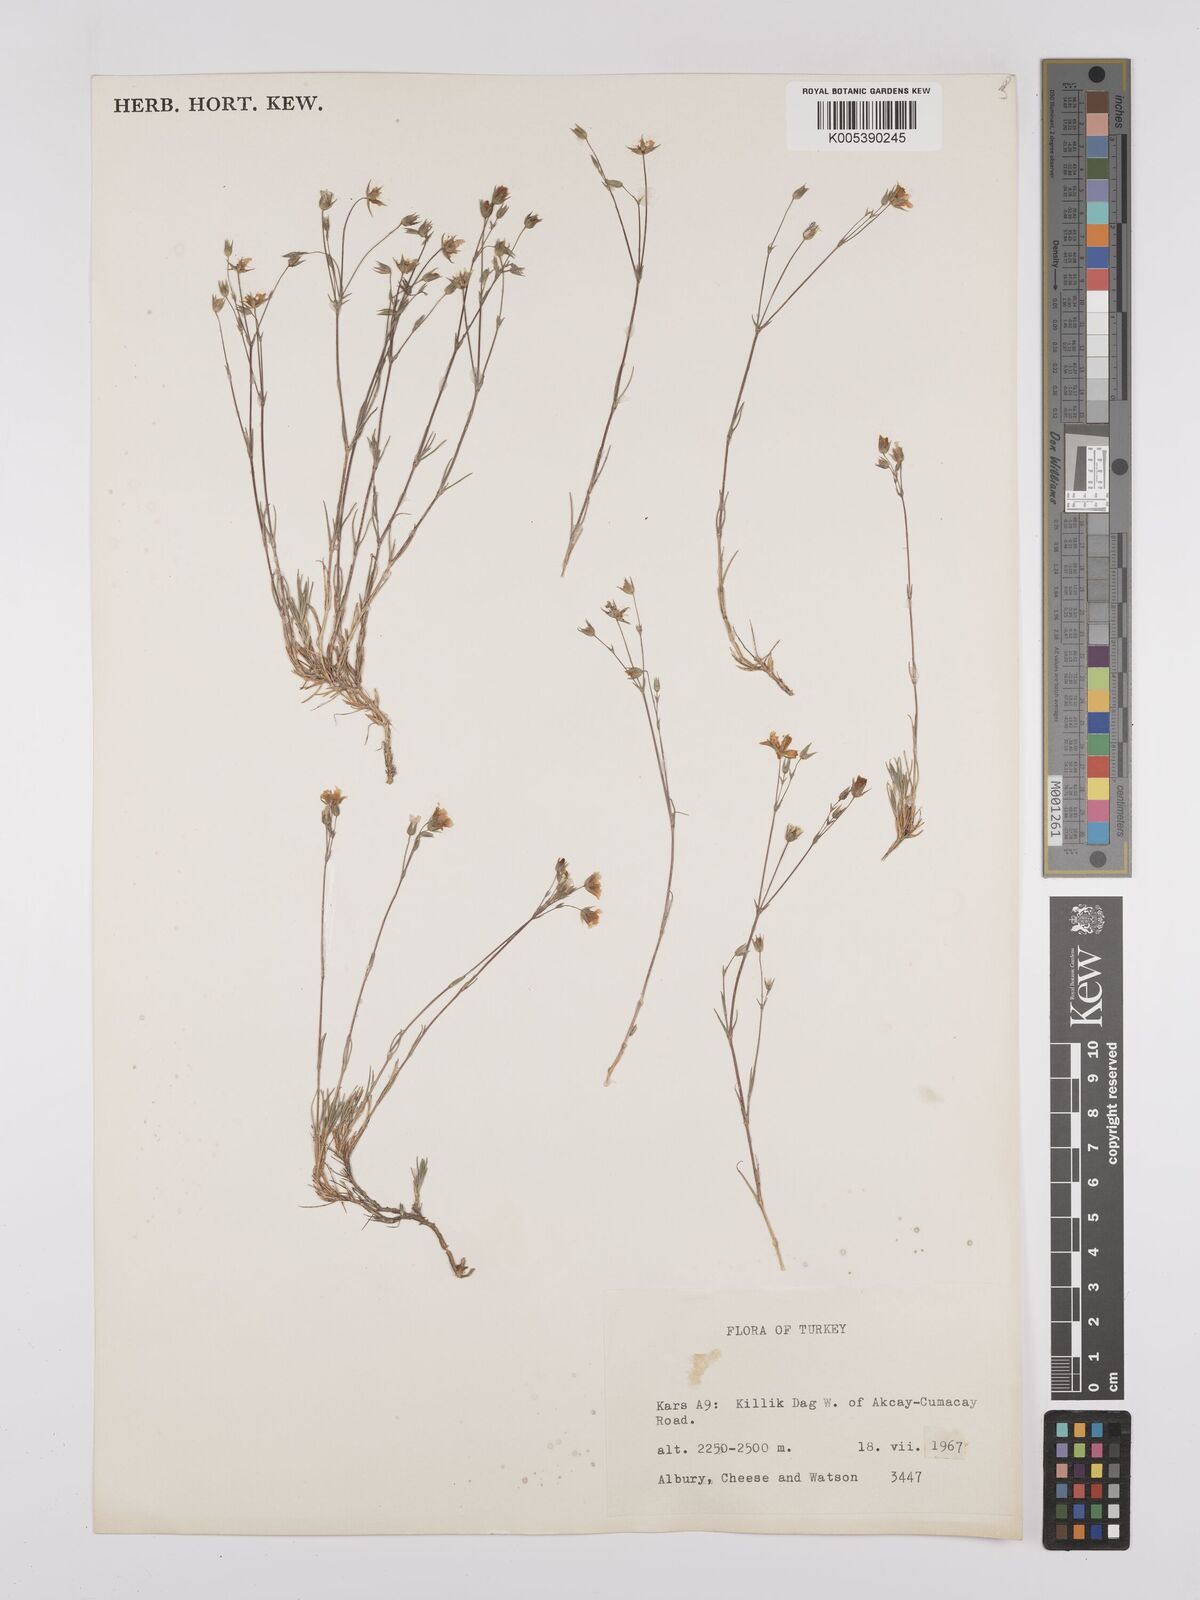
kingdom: Plantae
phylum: Tracheophyta
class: Magnoliopsida
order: Caryophyllales
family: Caryophyllaceae
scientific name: Caryophyllaceae
